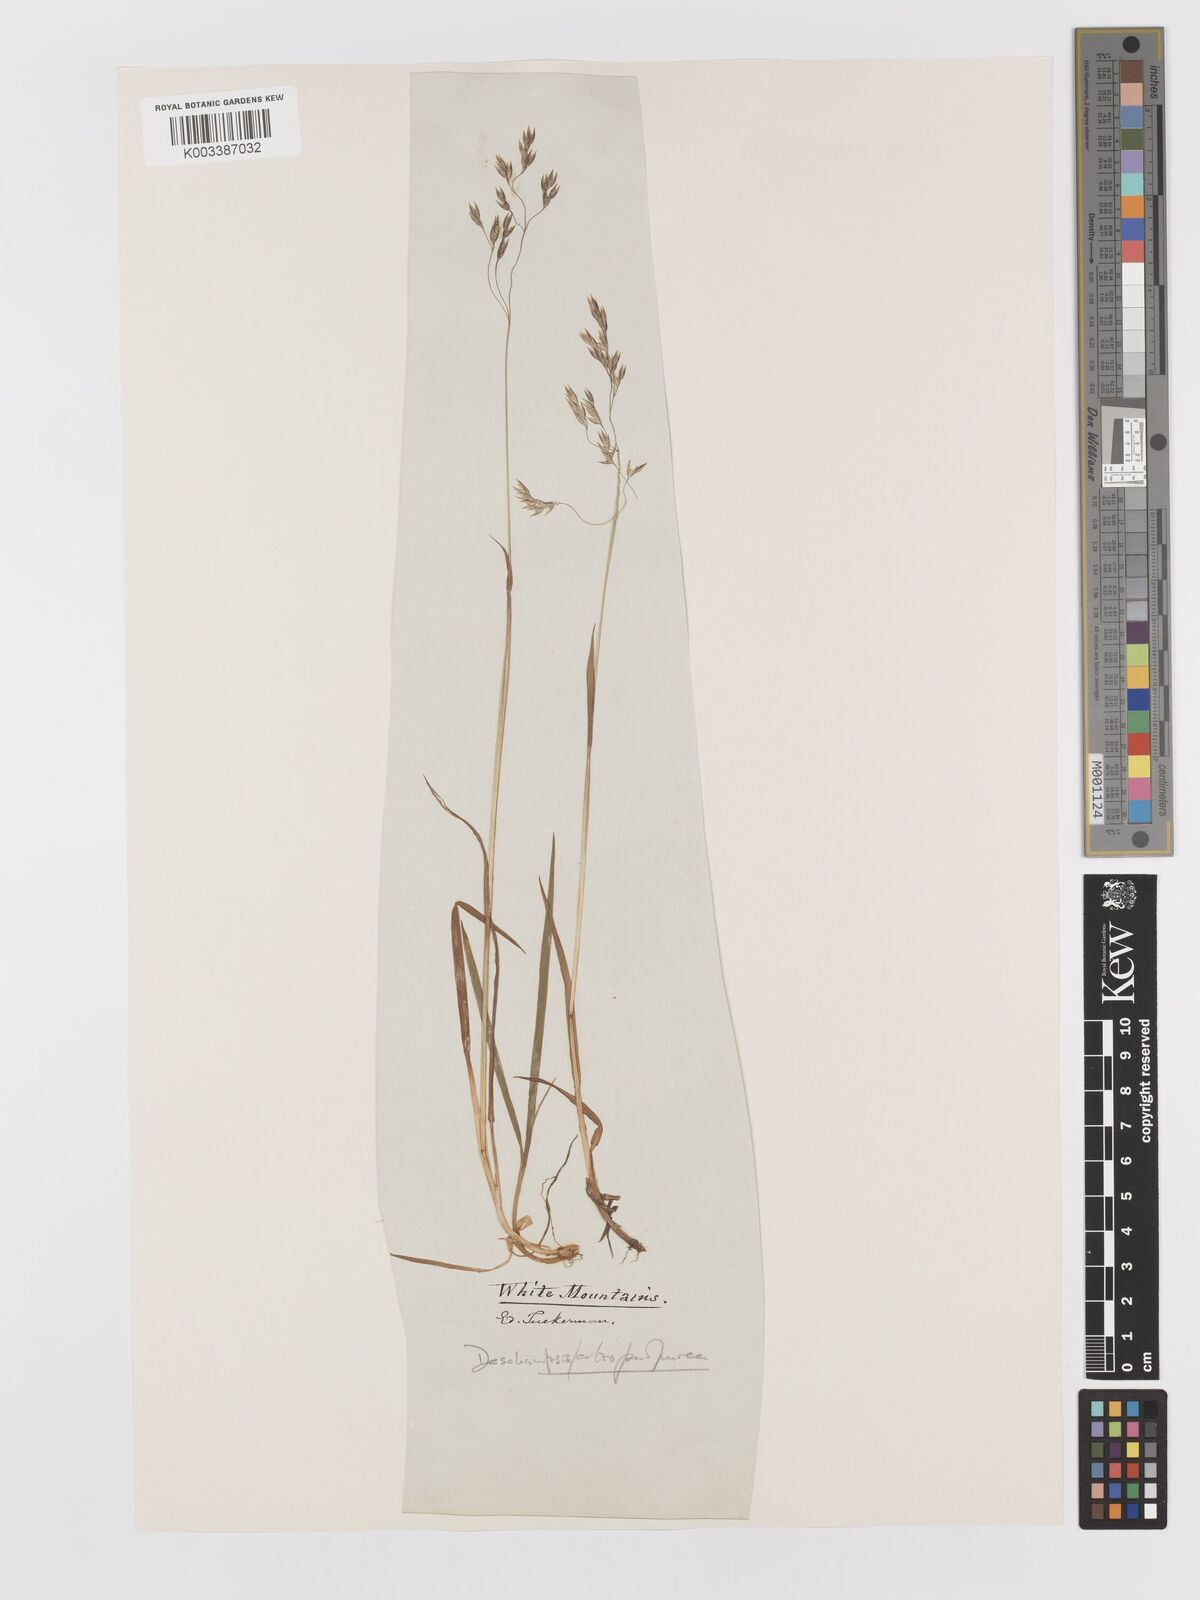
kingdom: Plantae
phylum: Tracheophyta
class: Liliopsida
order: Poales
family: Poaceae
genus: Vahlodea
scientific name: Vahlodea atropurpurea
